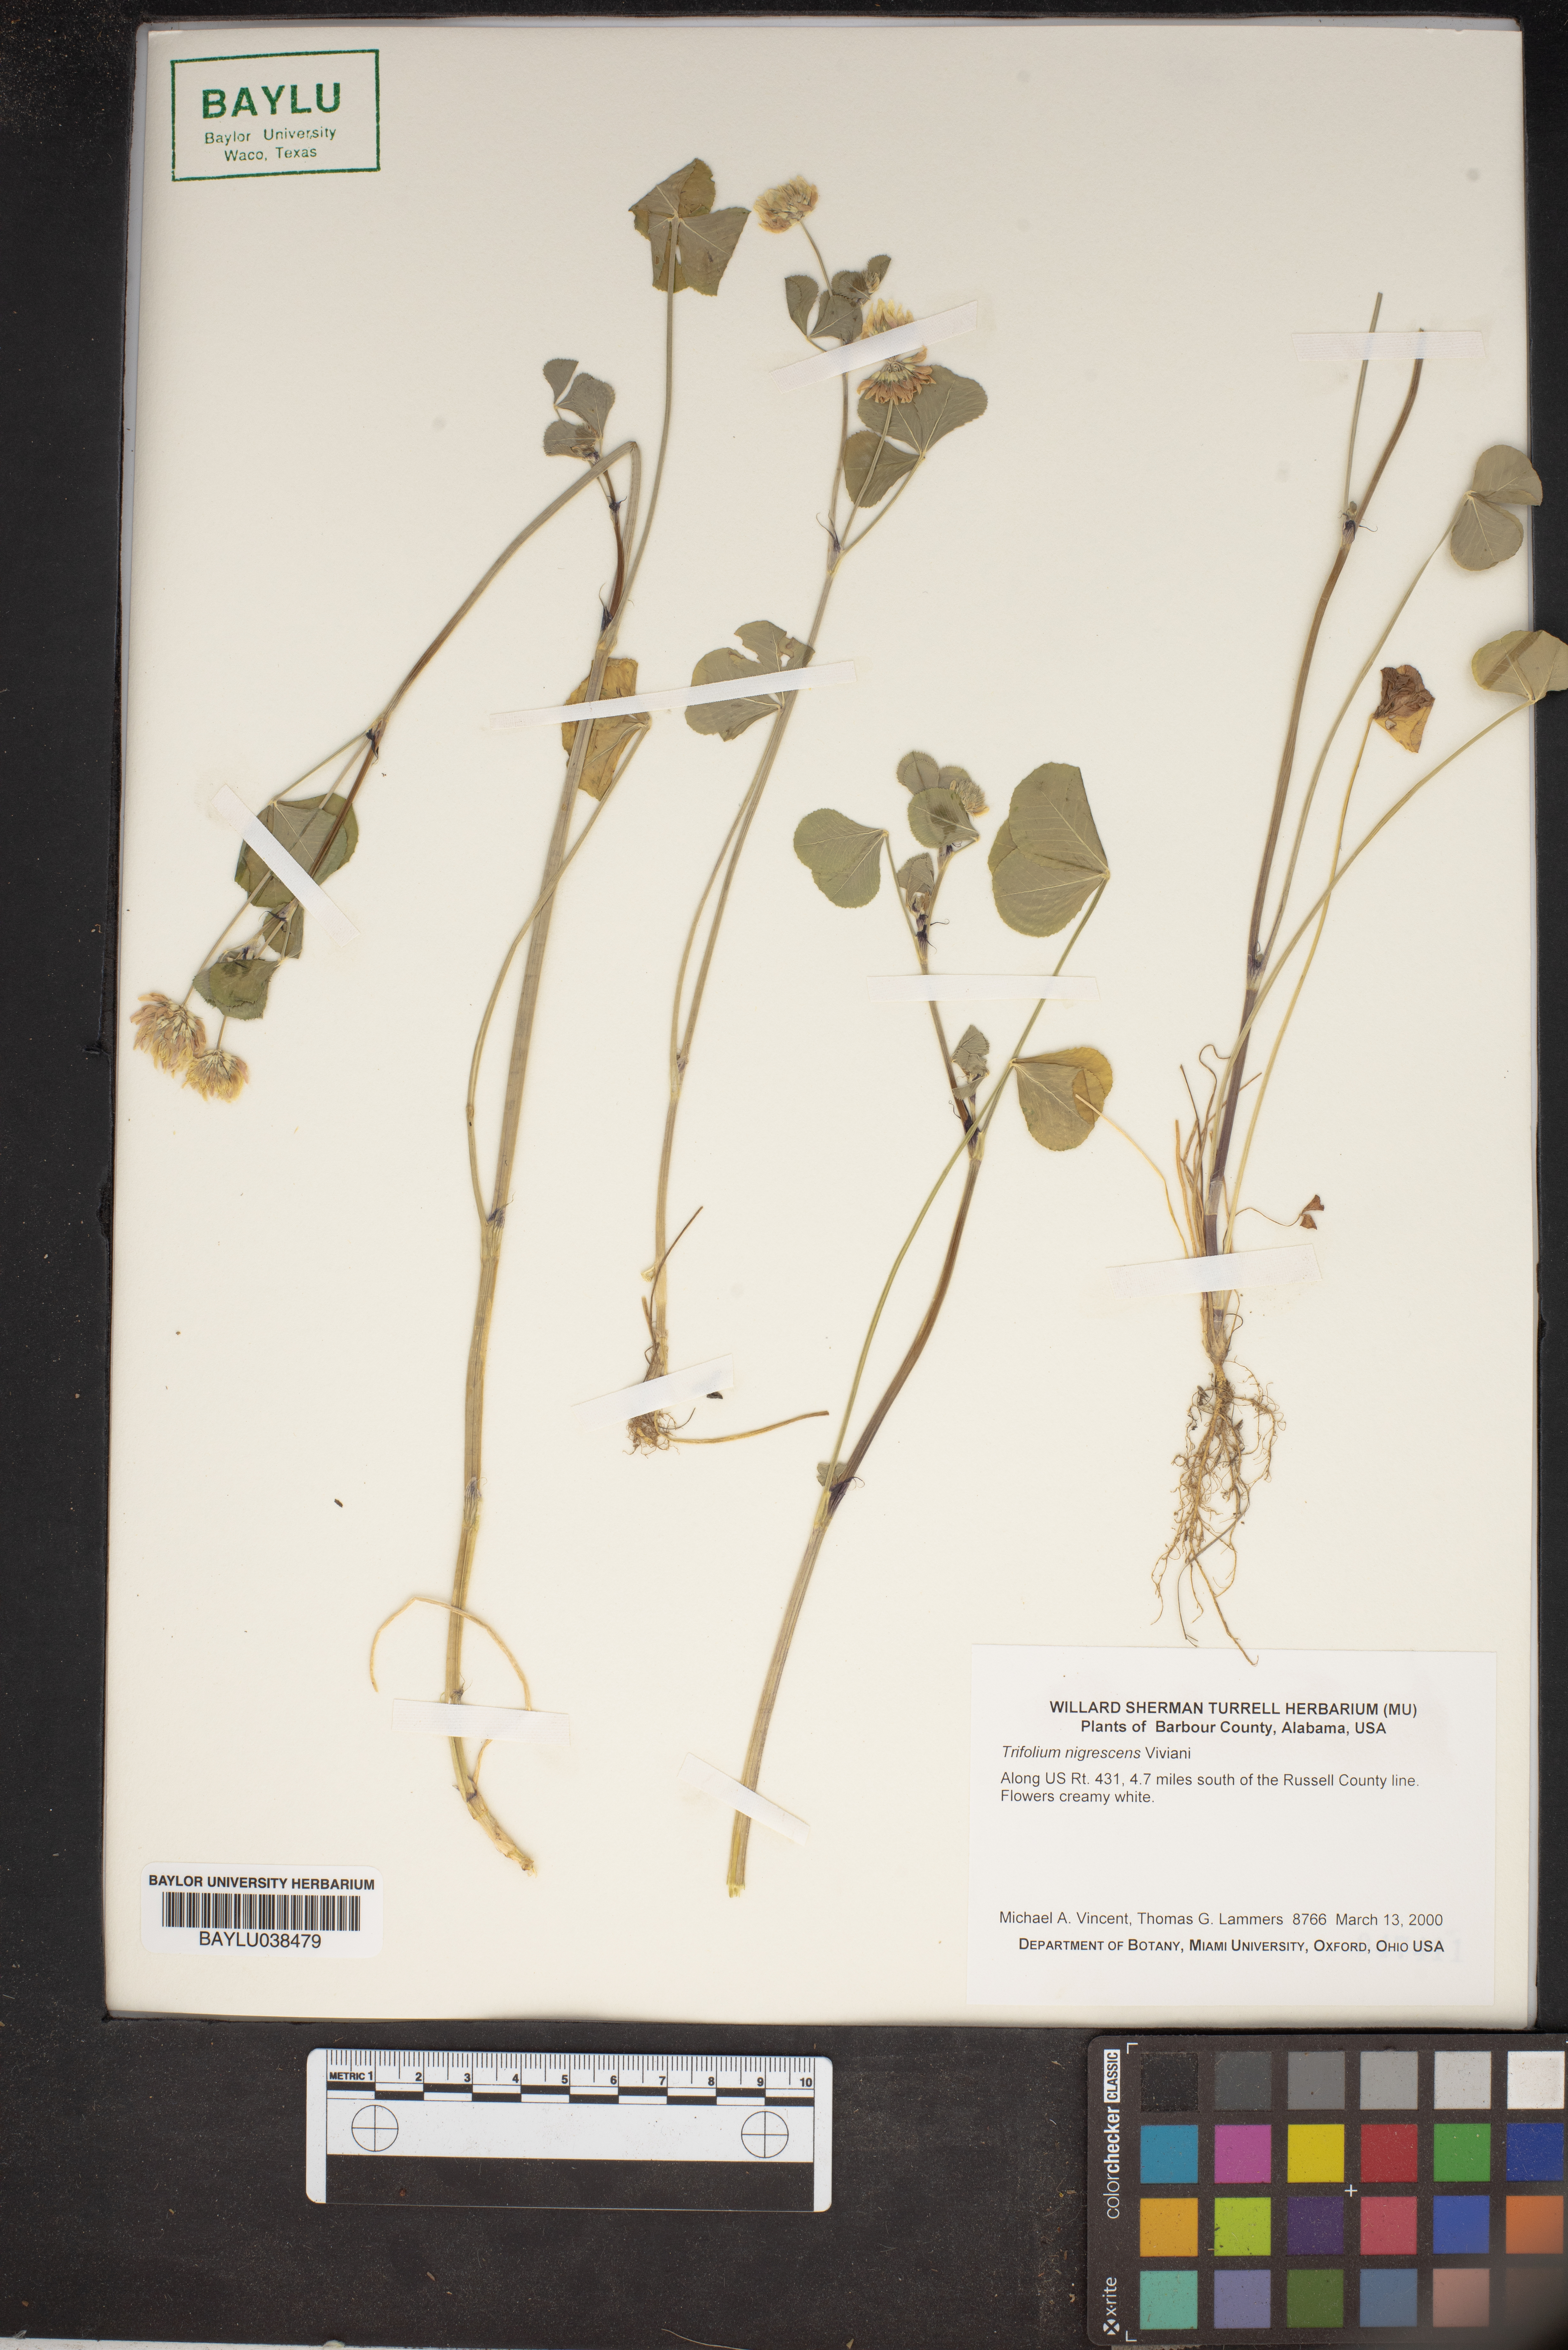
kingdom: Plantae
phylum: Tracheophyta
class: Magnoliopsida
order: Fabales
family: Fabaceae
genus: Trifolium
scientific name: Trifolium nigrescens
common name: Small white clover
